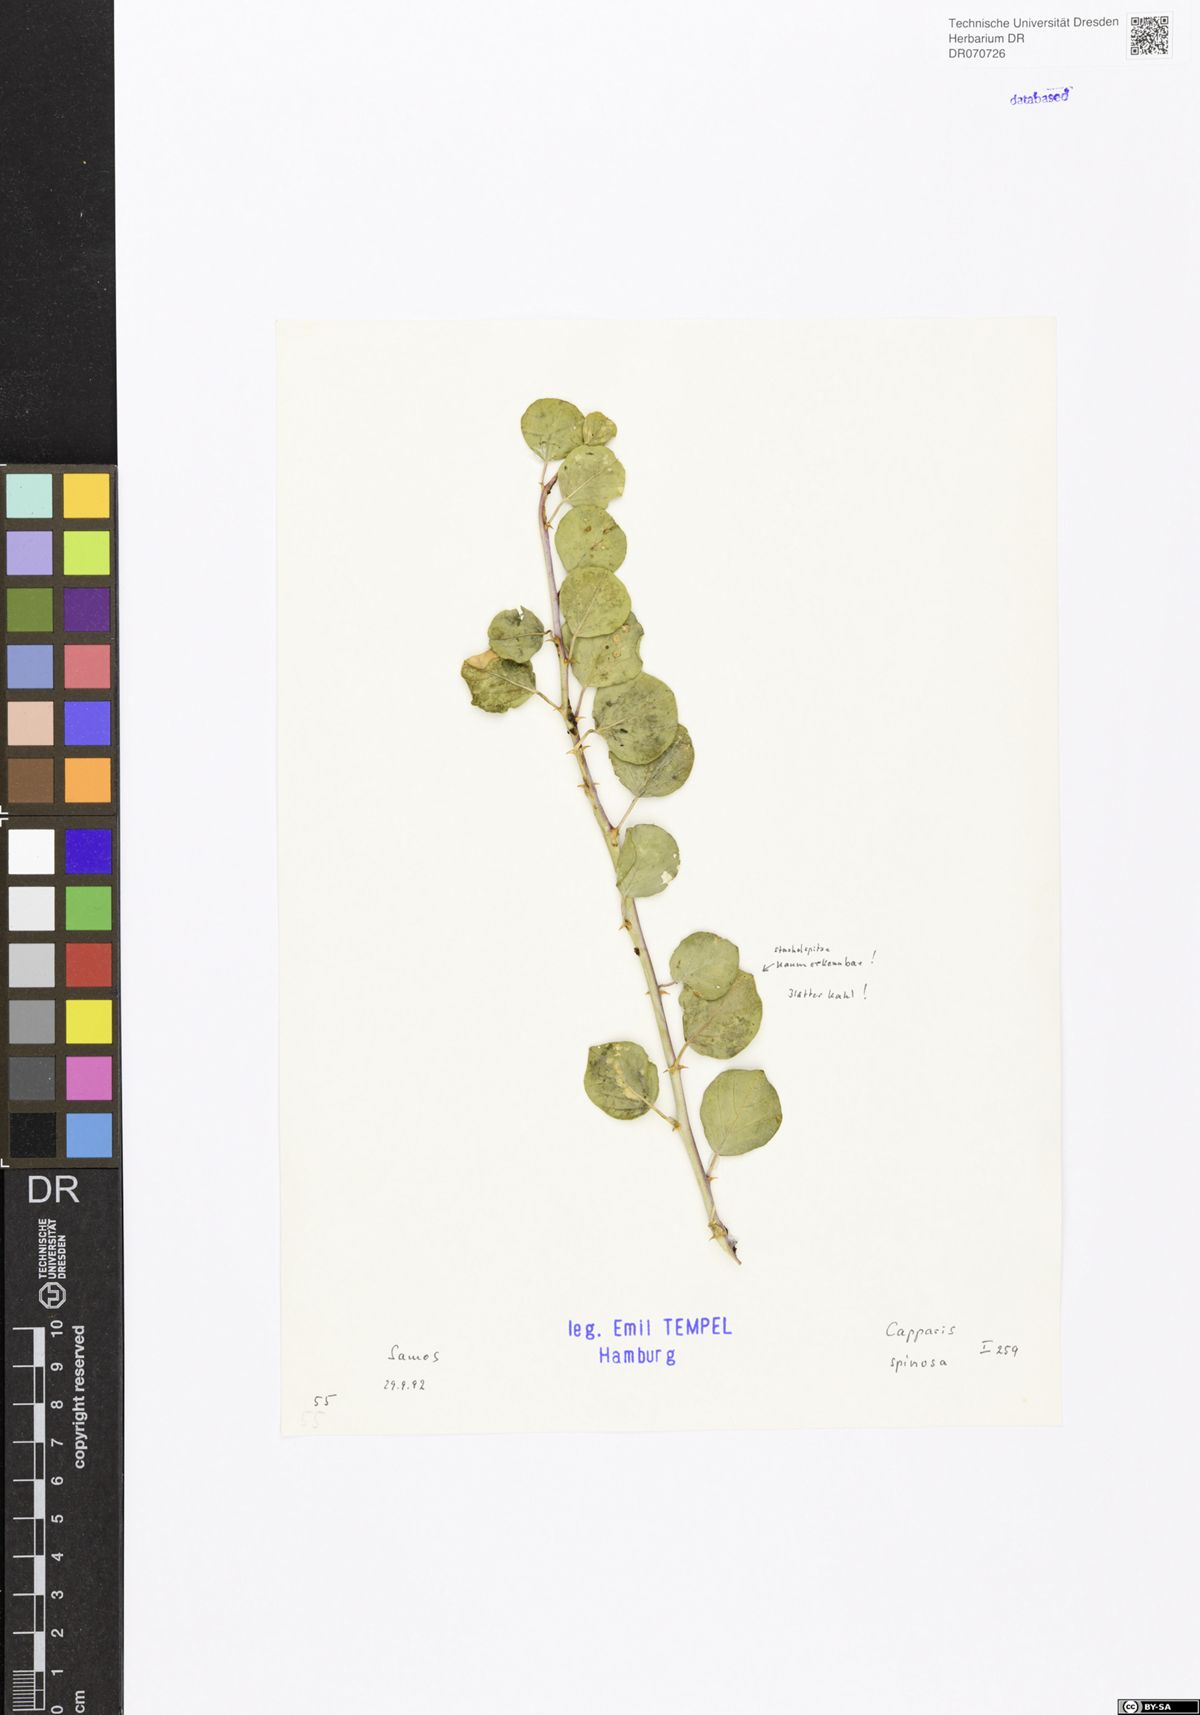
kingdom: Plantae
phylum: Tracheophyta
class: Magnoliopsida
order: Brassicales
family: Capparaceae
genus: Capparis
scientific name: Capparis spinosa
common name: Caper
